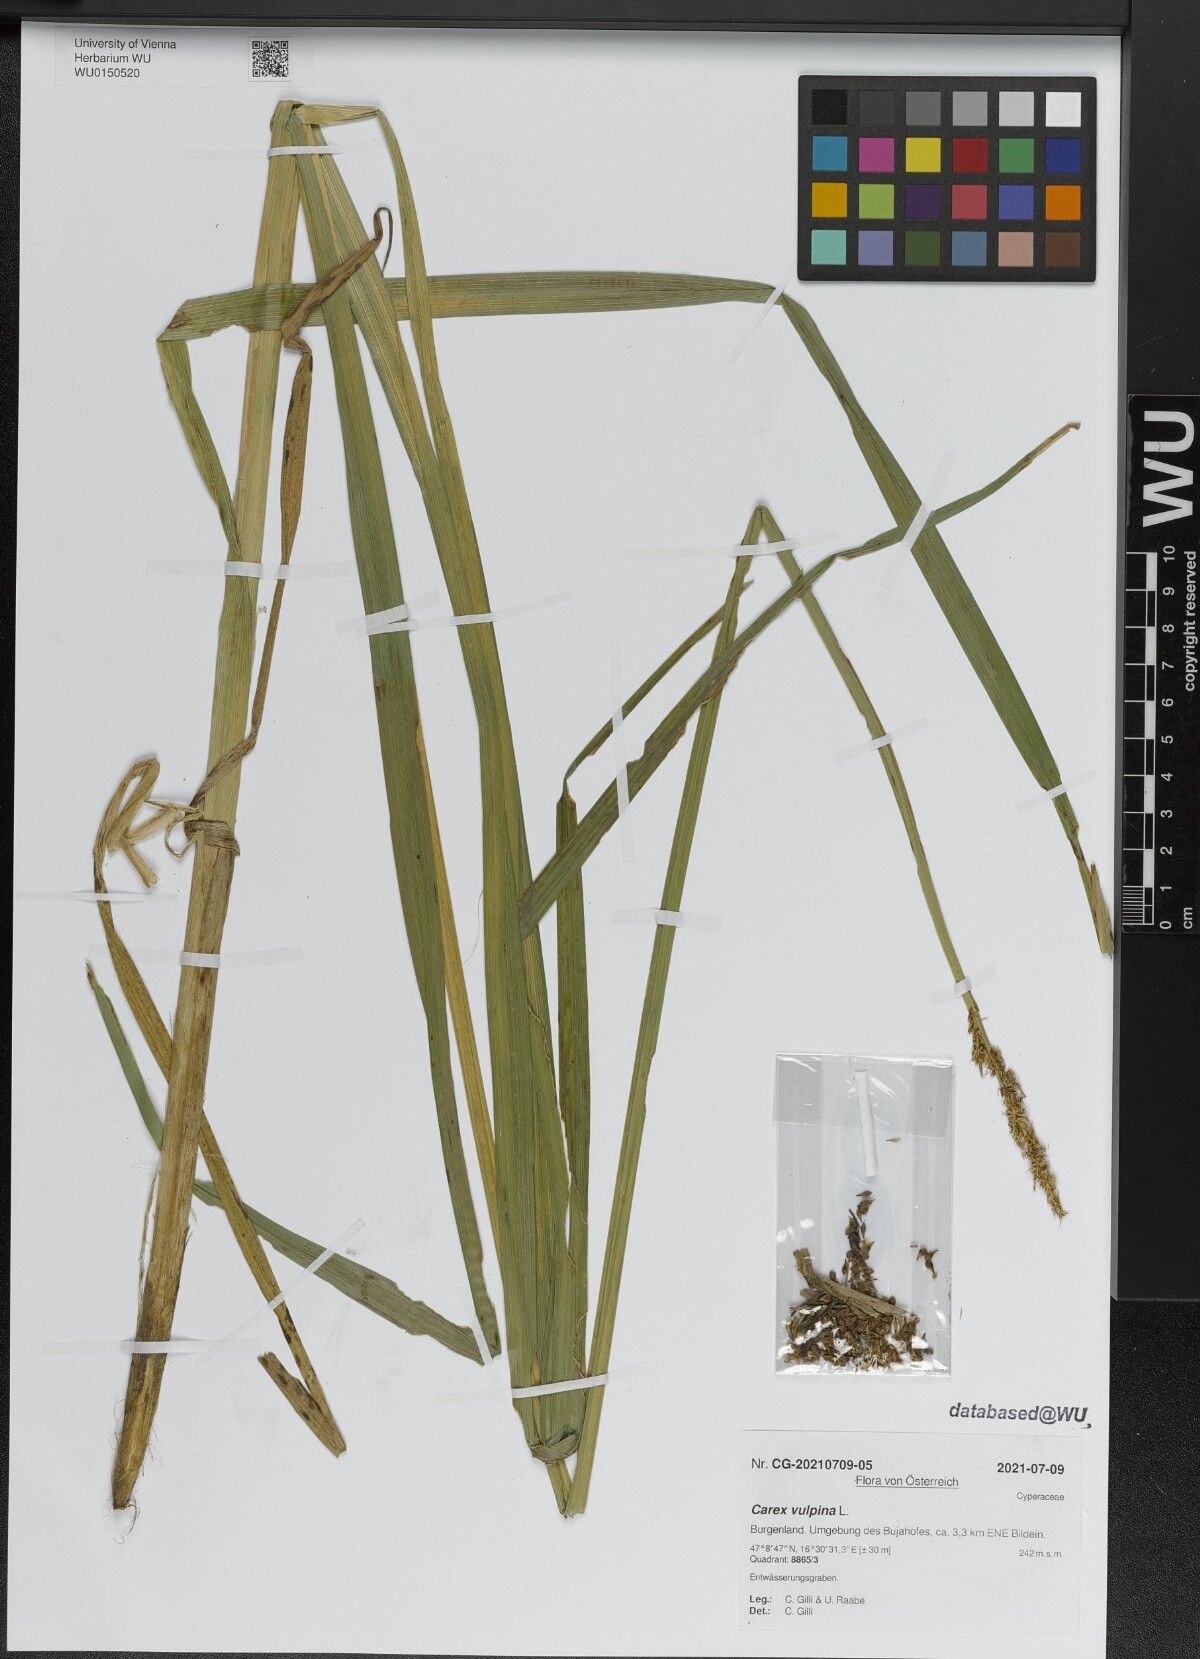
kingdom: Plantae
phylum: Tracheophyta
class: Liliopsida
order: Poales
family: Cyperaceae
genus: Carex
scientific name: Carex vulpina
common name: True fox-sedge
